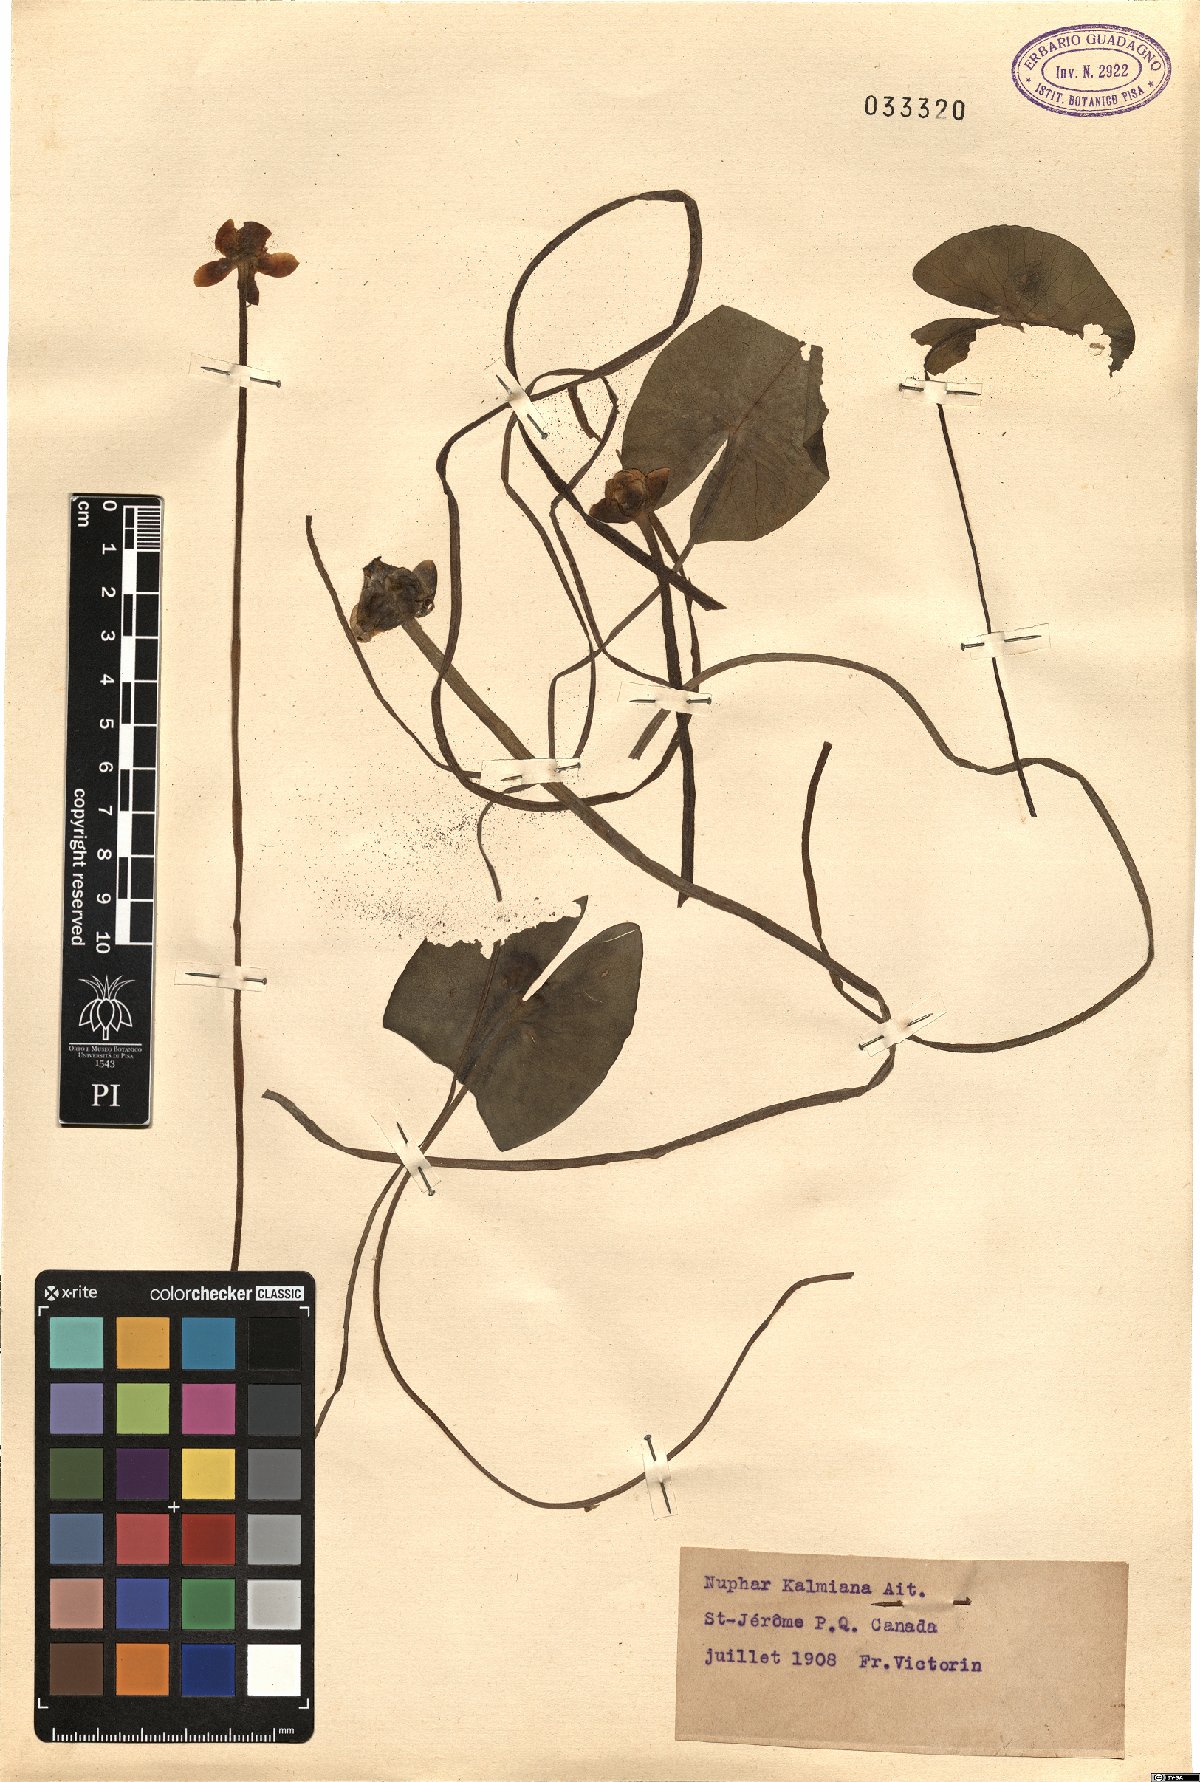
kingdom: Plantae
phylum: Tracheophyta
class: Magnoliopsida
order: Nymphaeales
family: Nymphaeaceae
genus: Nuphar
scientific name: Nuphar microphylla
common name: Small pond-lily
